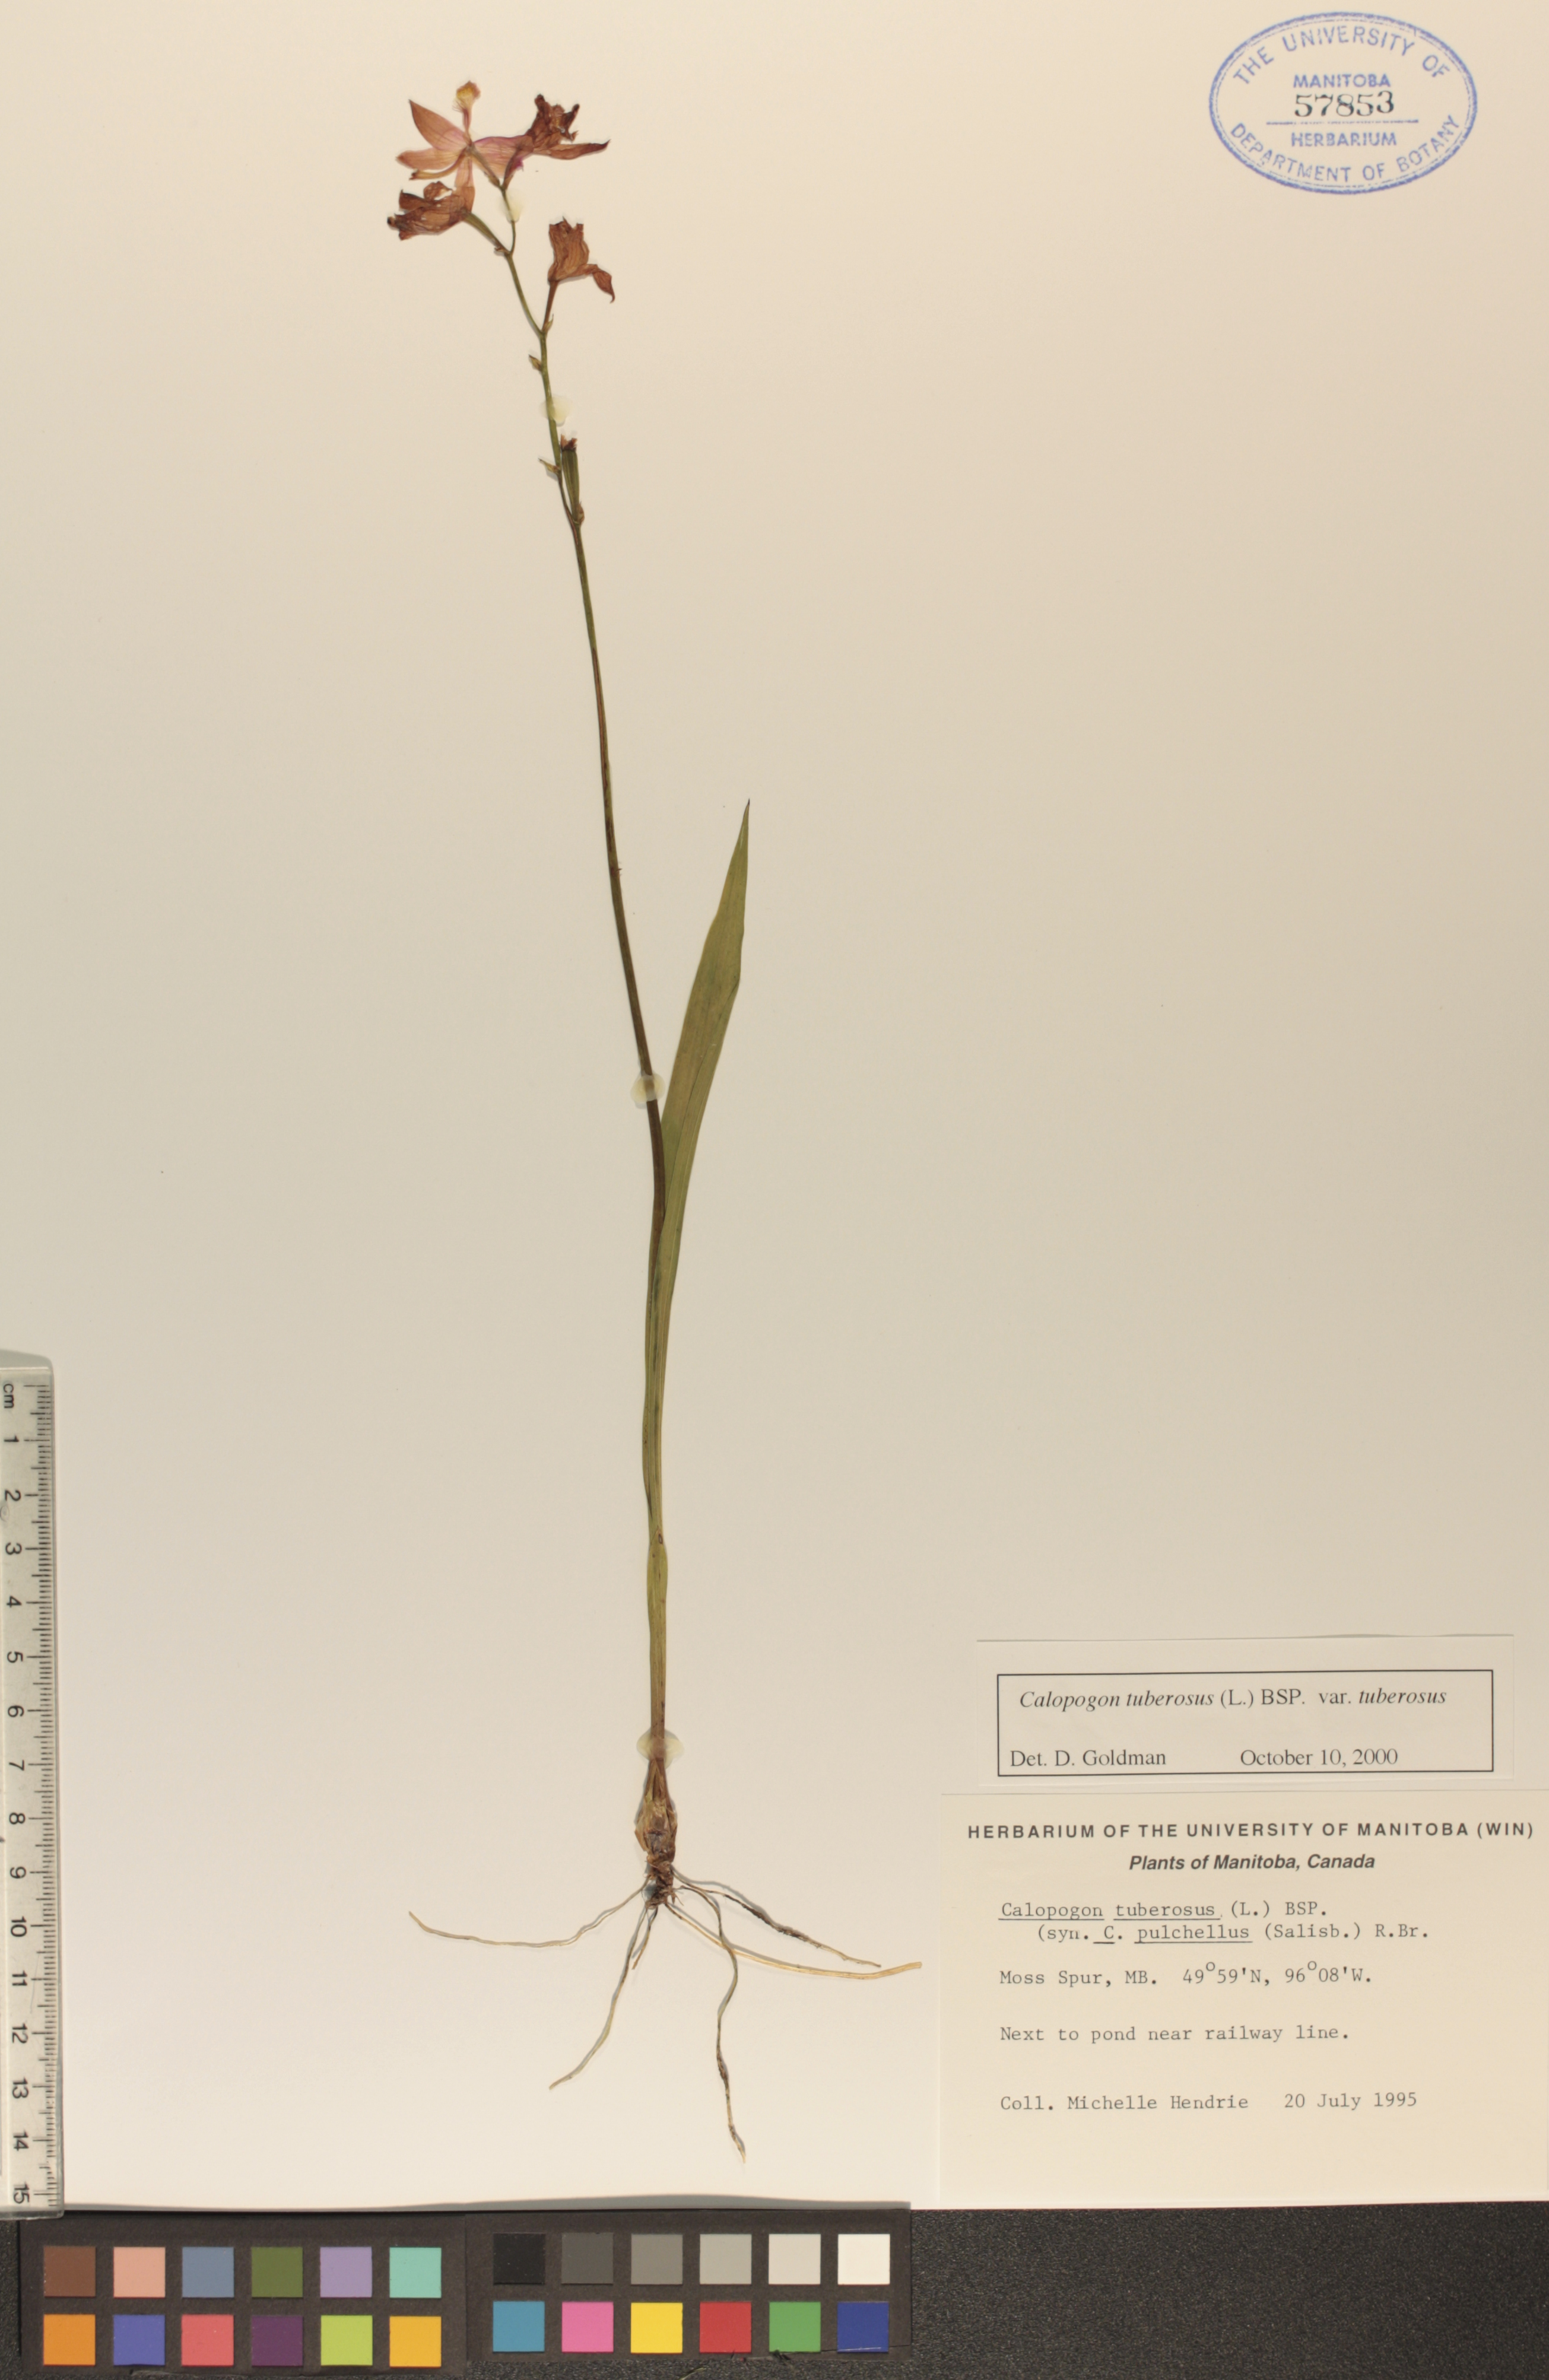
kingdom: Plantae
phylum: Tracheophyta
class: Liliopsida
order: Asparagales
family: Orchidaceae
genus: Calopogon
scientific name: Calopogon tuberosus
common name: Grass-pink
